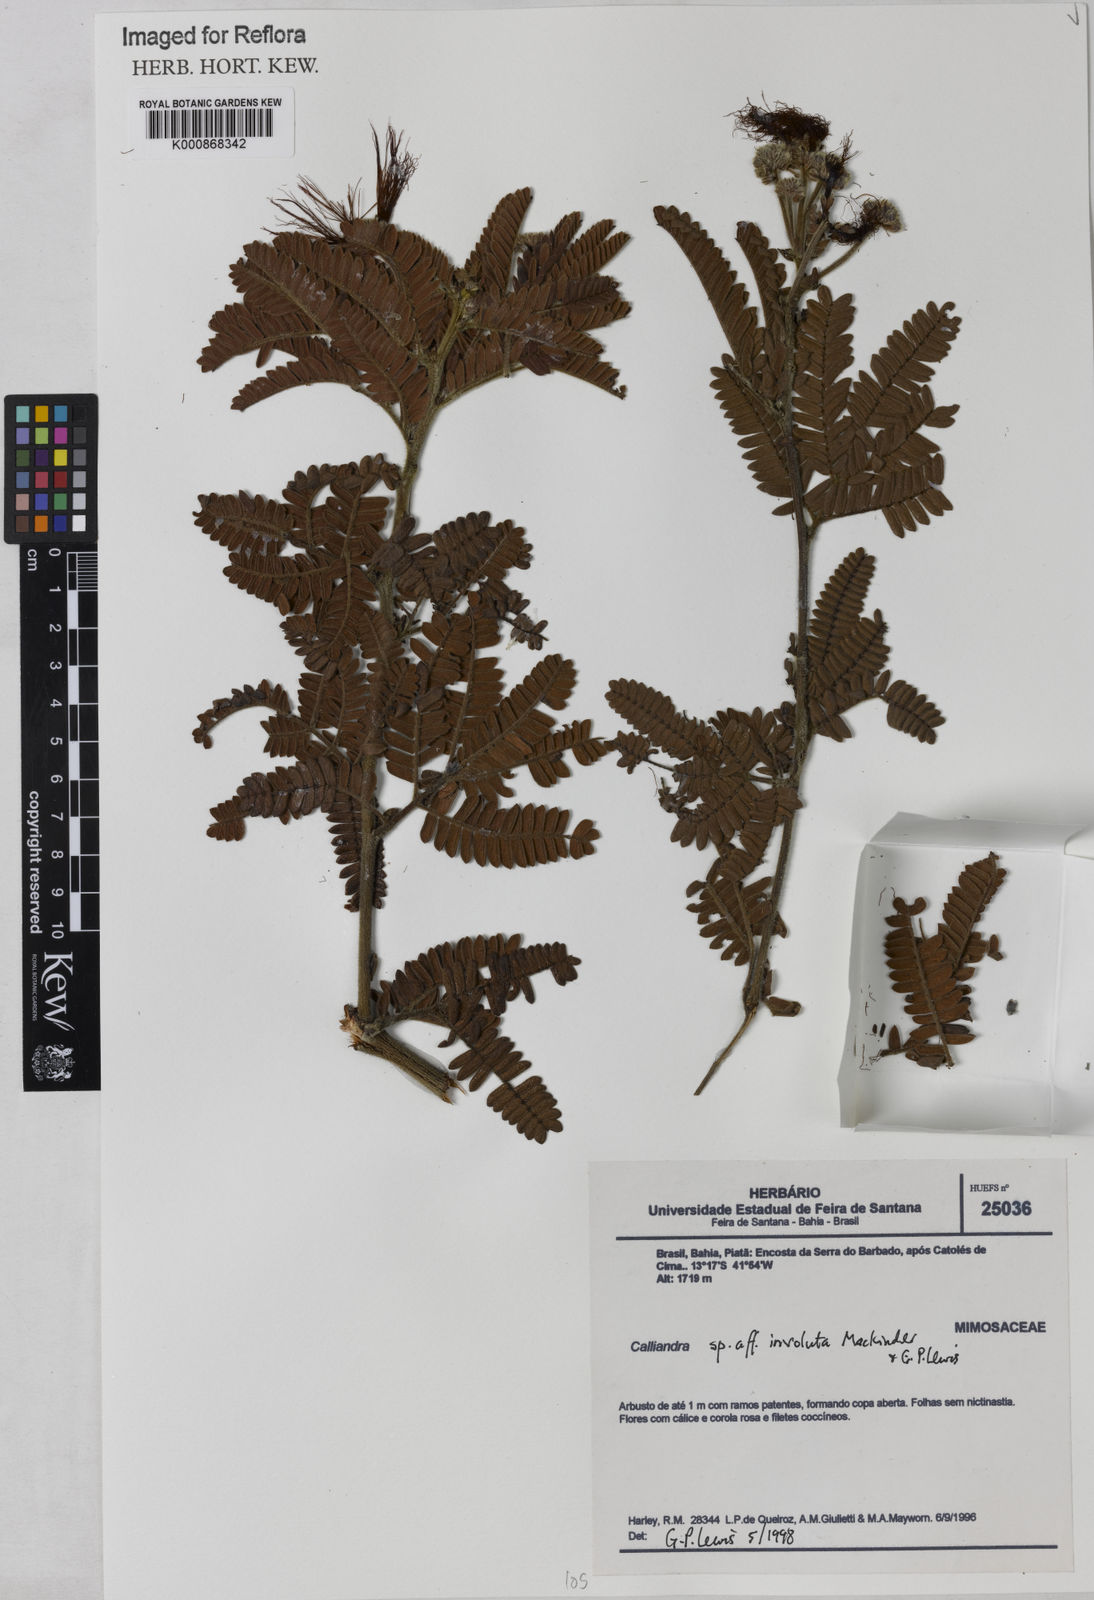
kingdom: Plantae
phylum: Tracheophyta
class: Magnoliopsida
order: Fabales
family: Fabaceae
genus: Calliandra
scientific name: Calliandra involuta
